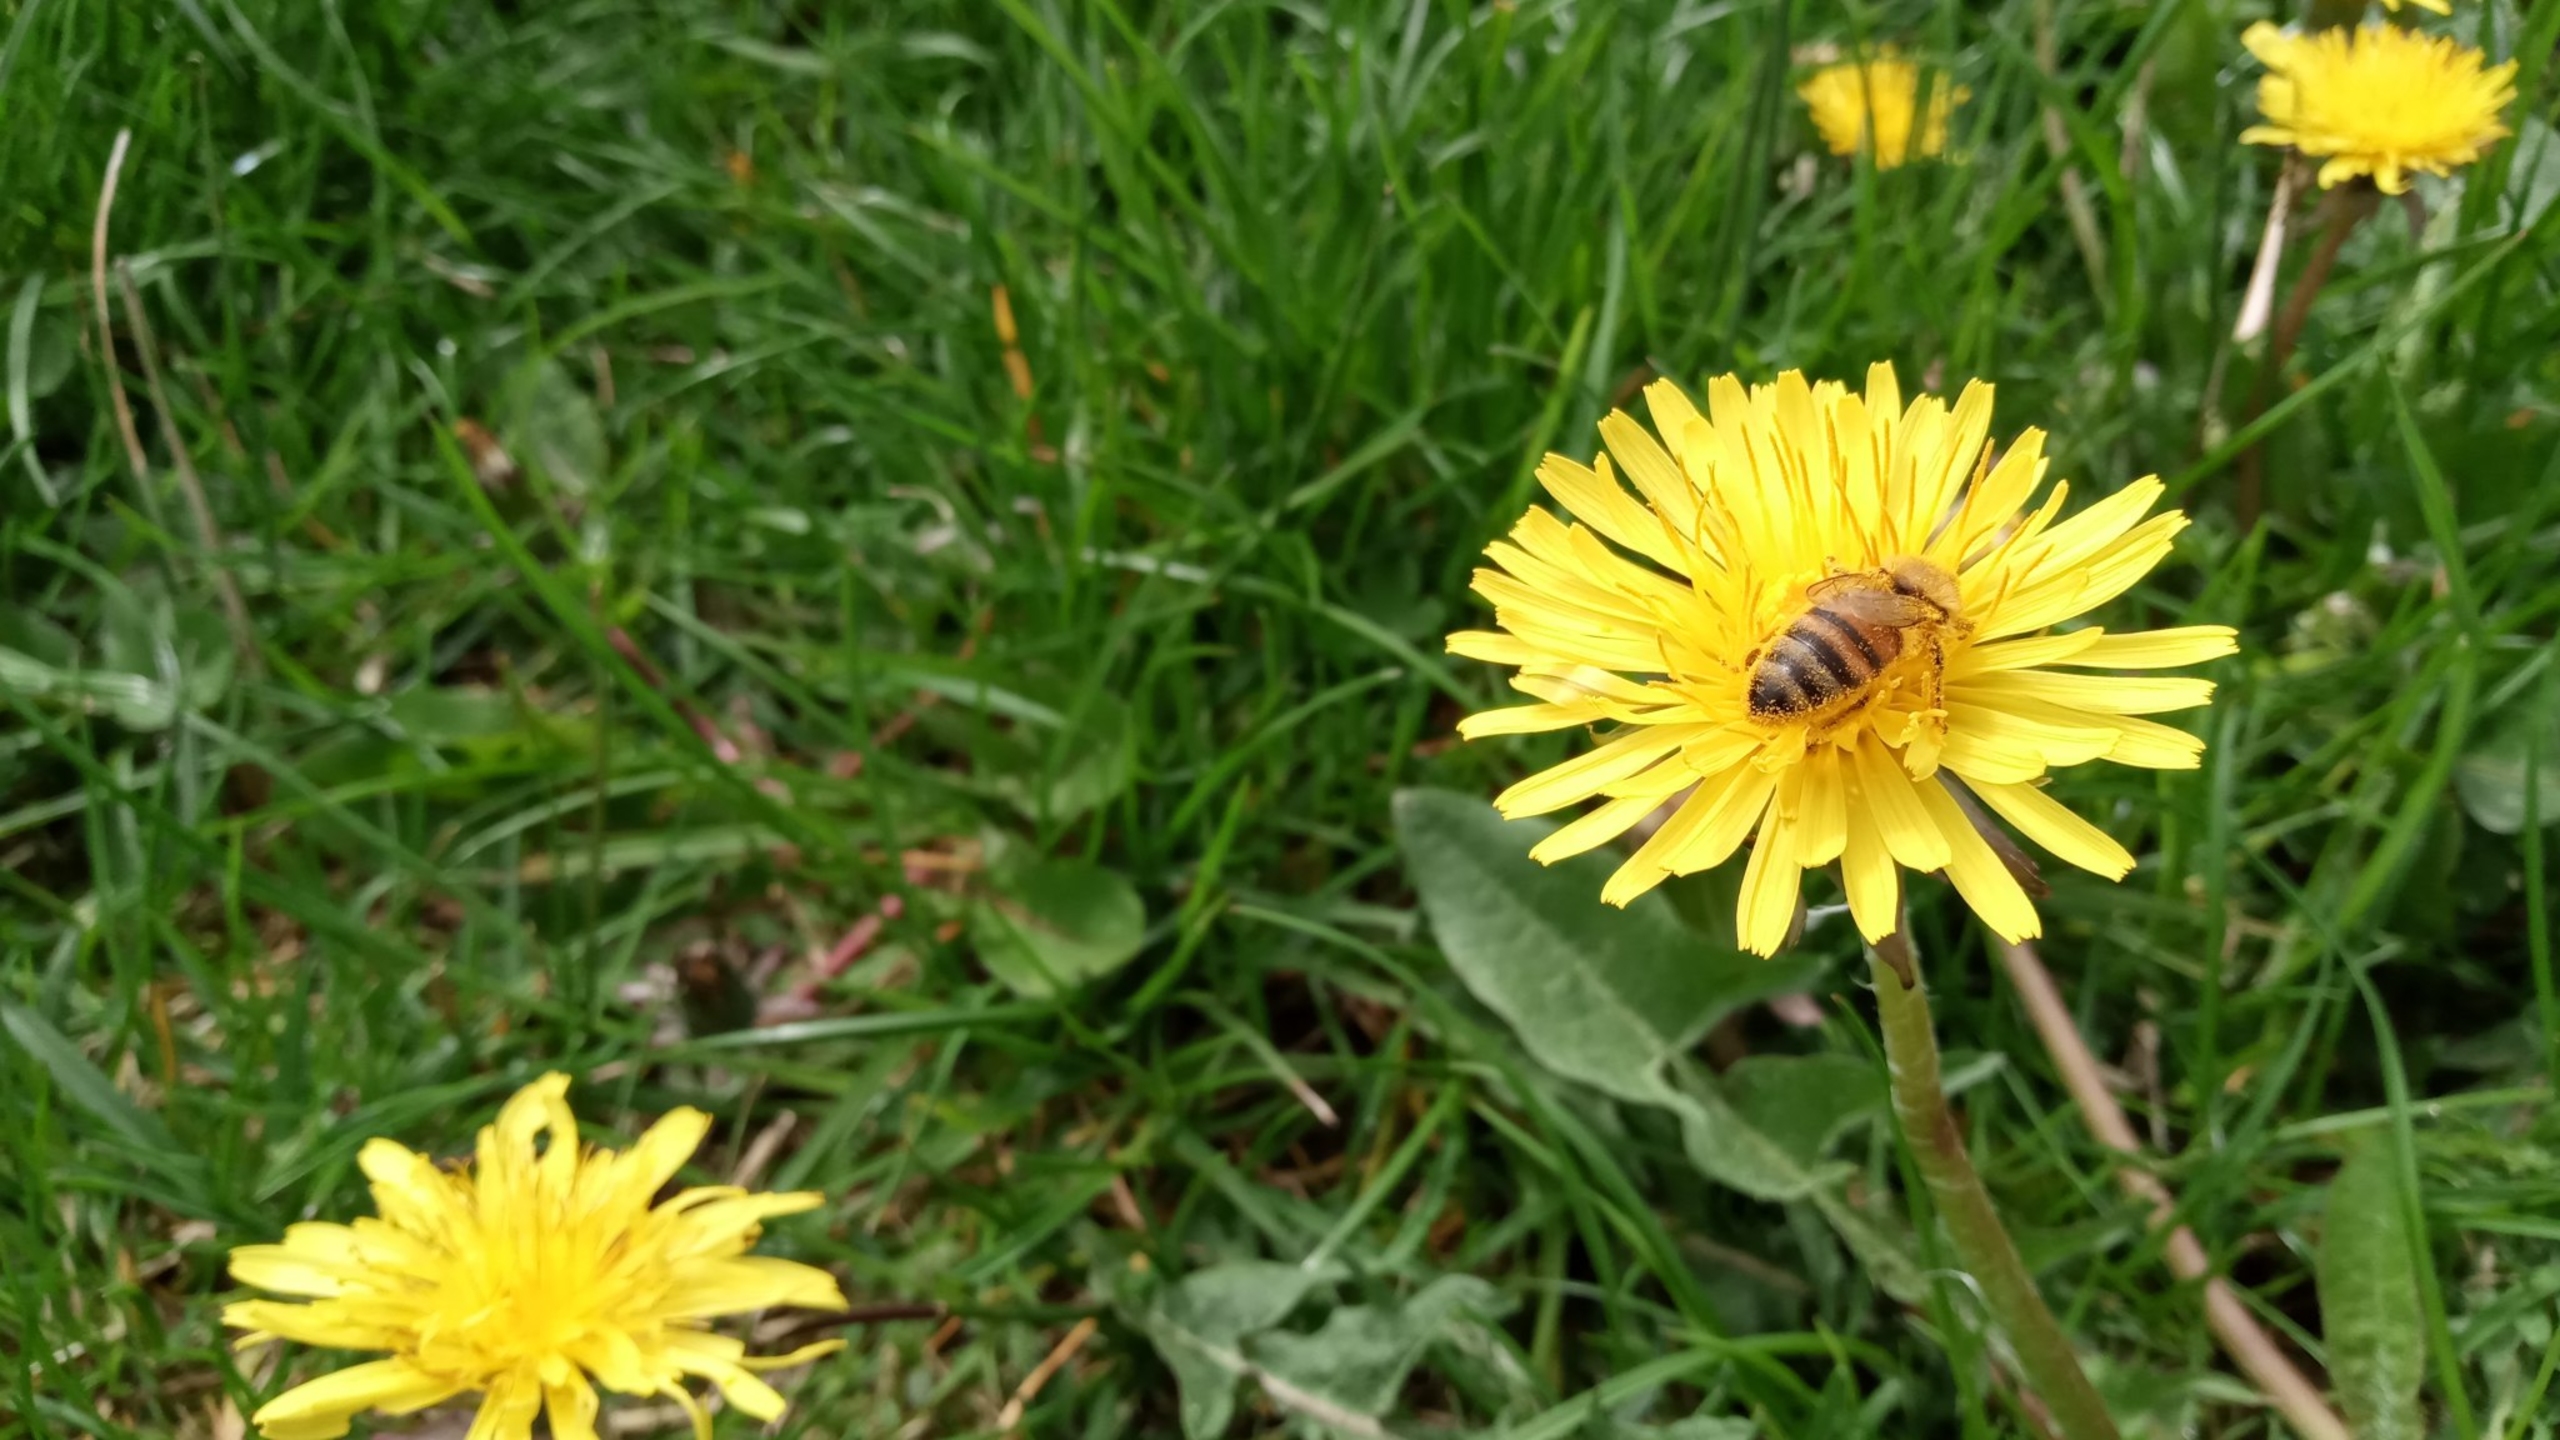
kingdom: Animalia
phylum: Arthropoda
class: Insecta
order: Hymenoptera
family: Apidae
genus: Apis
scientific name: Apis mellifera
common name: Honningbi
